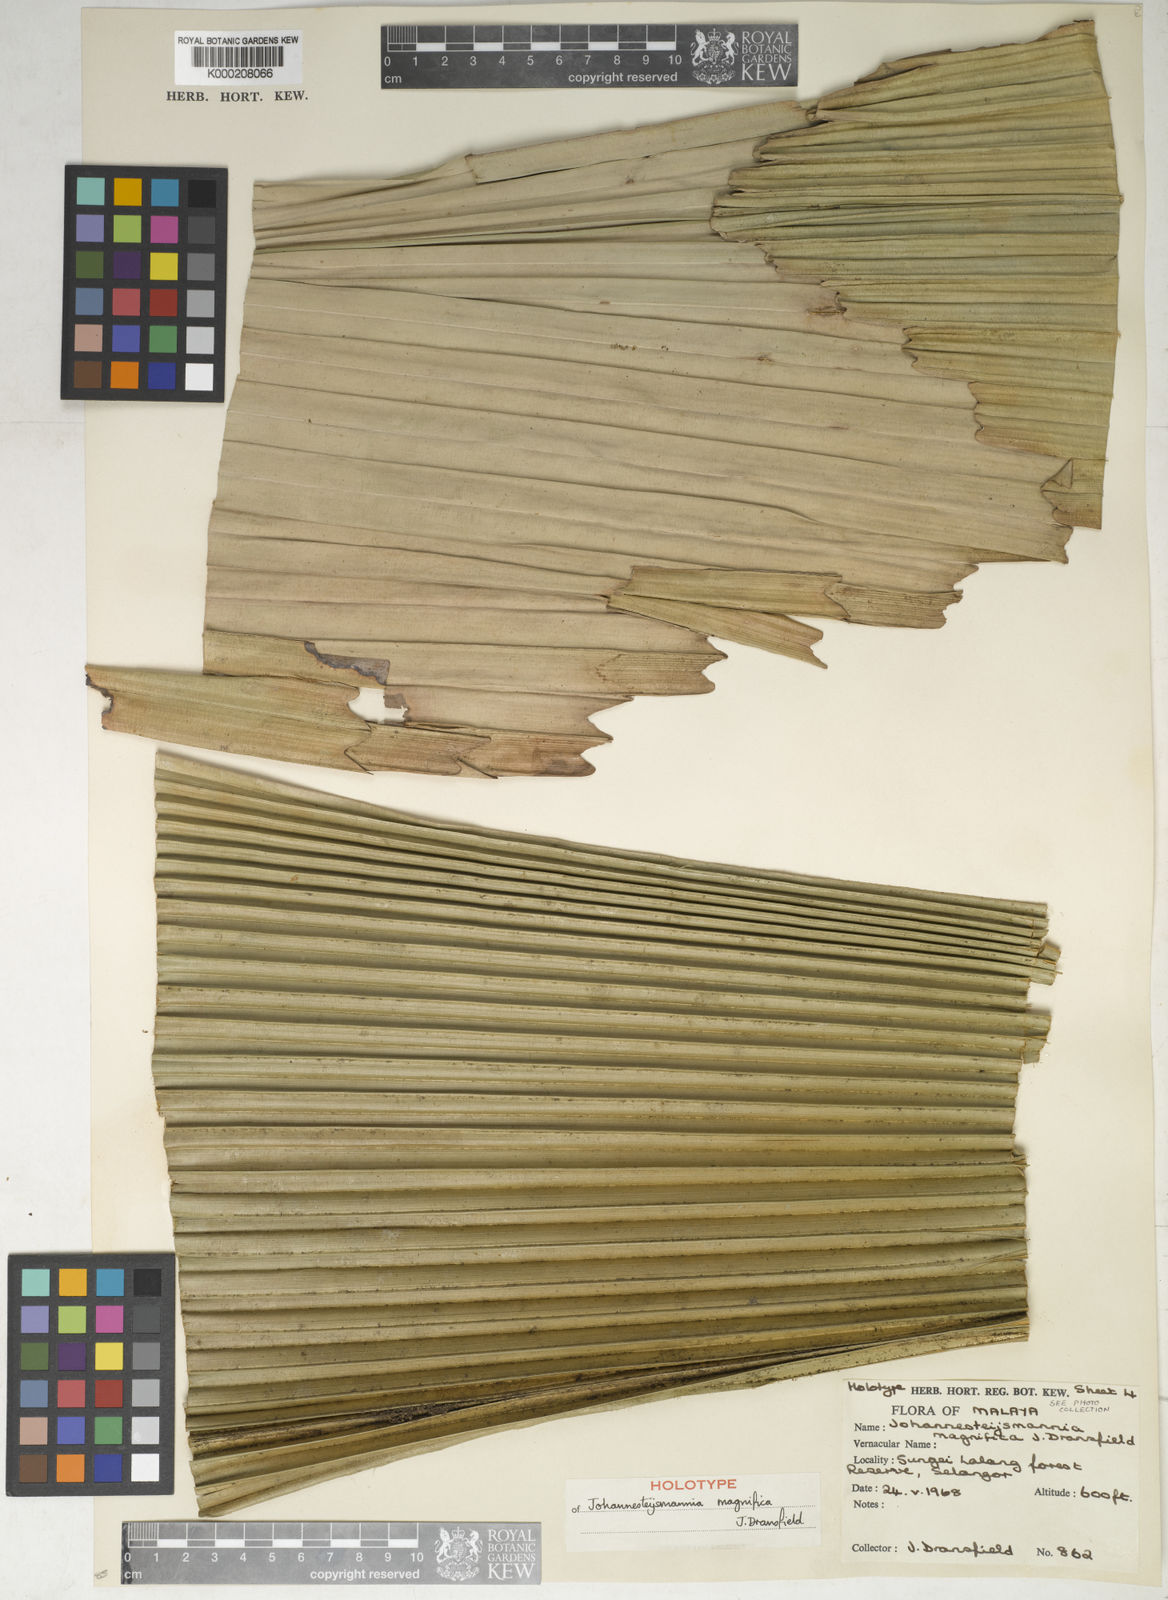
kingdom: Plantae
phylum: Tracheophyta
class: Liliopsida
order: Arecales
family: Arecaceae
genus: Johannesteijsmannia
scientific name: Johannesteijsmannia magnifica
